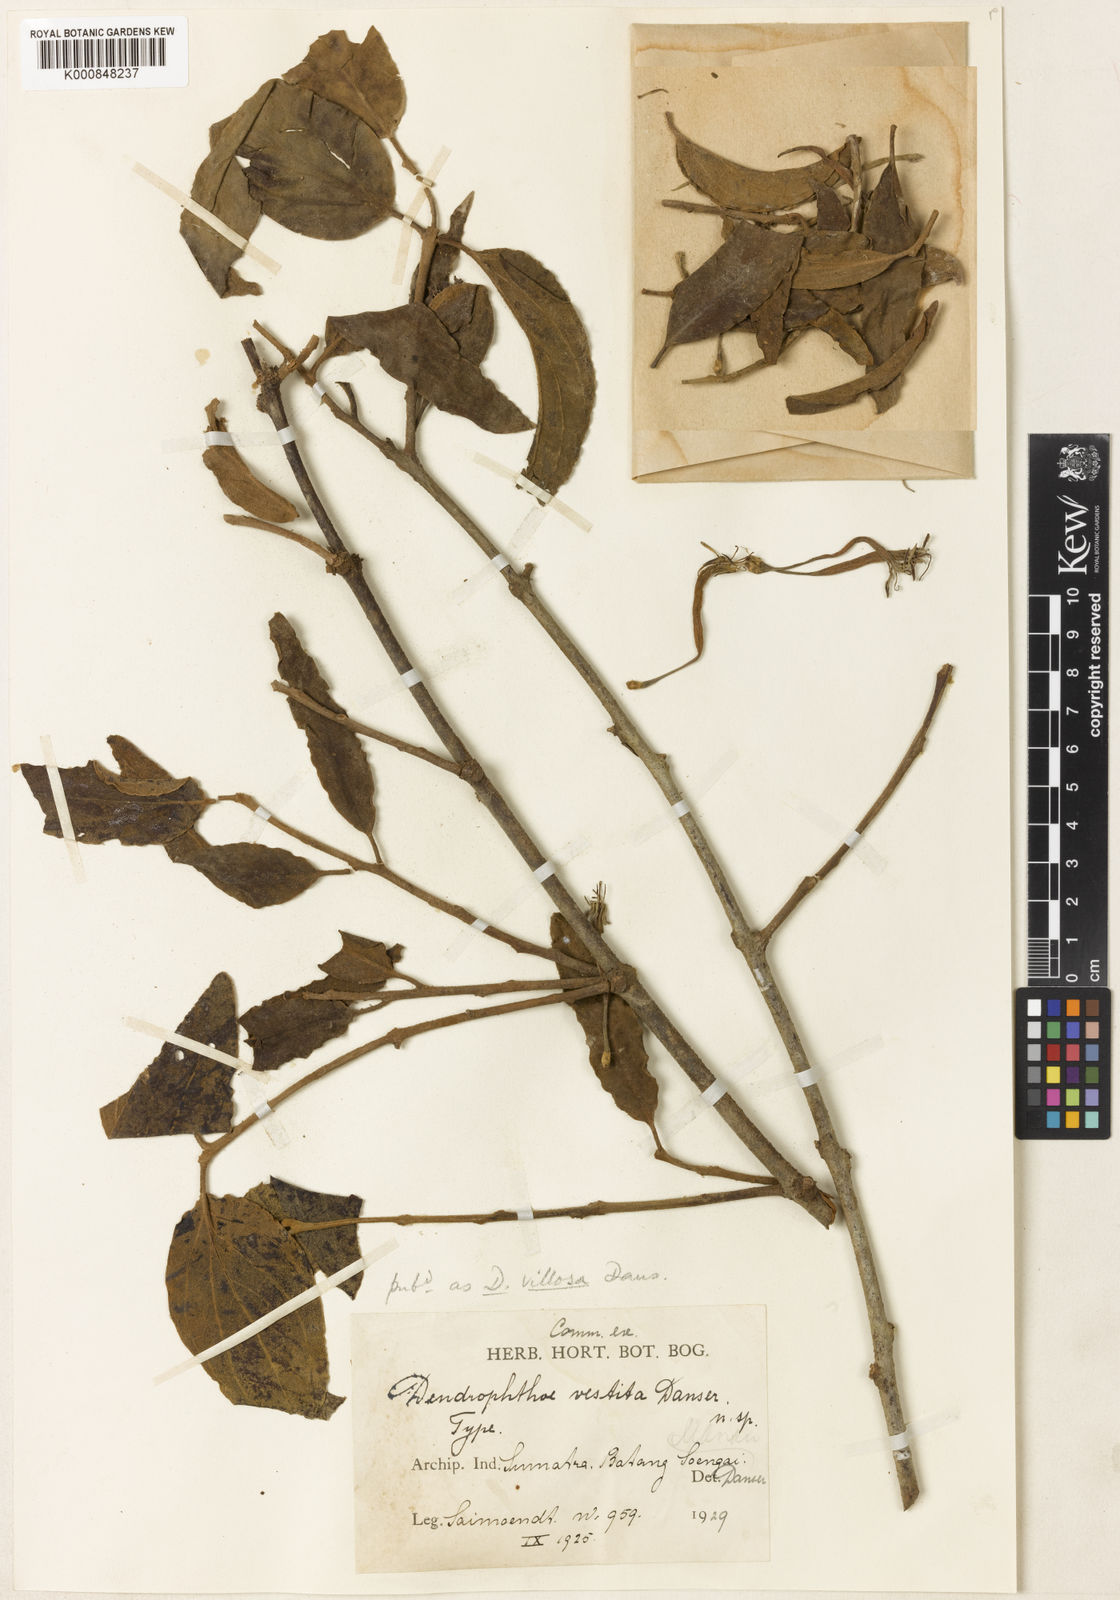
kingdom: Plantae
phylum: Tracheophyta
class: Magnoliopsida
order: Santalales
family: Loranthaceae
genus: Dendrophthoe
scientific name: Dendrophthoe incarnata
